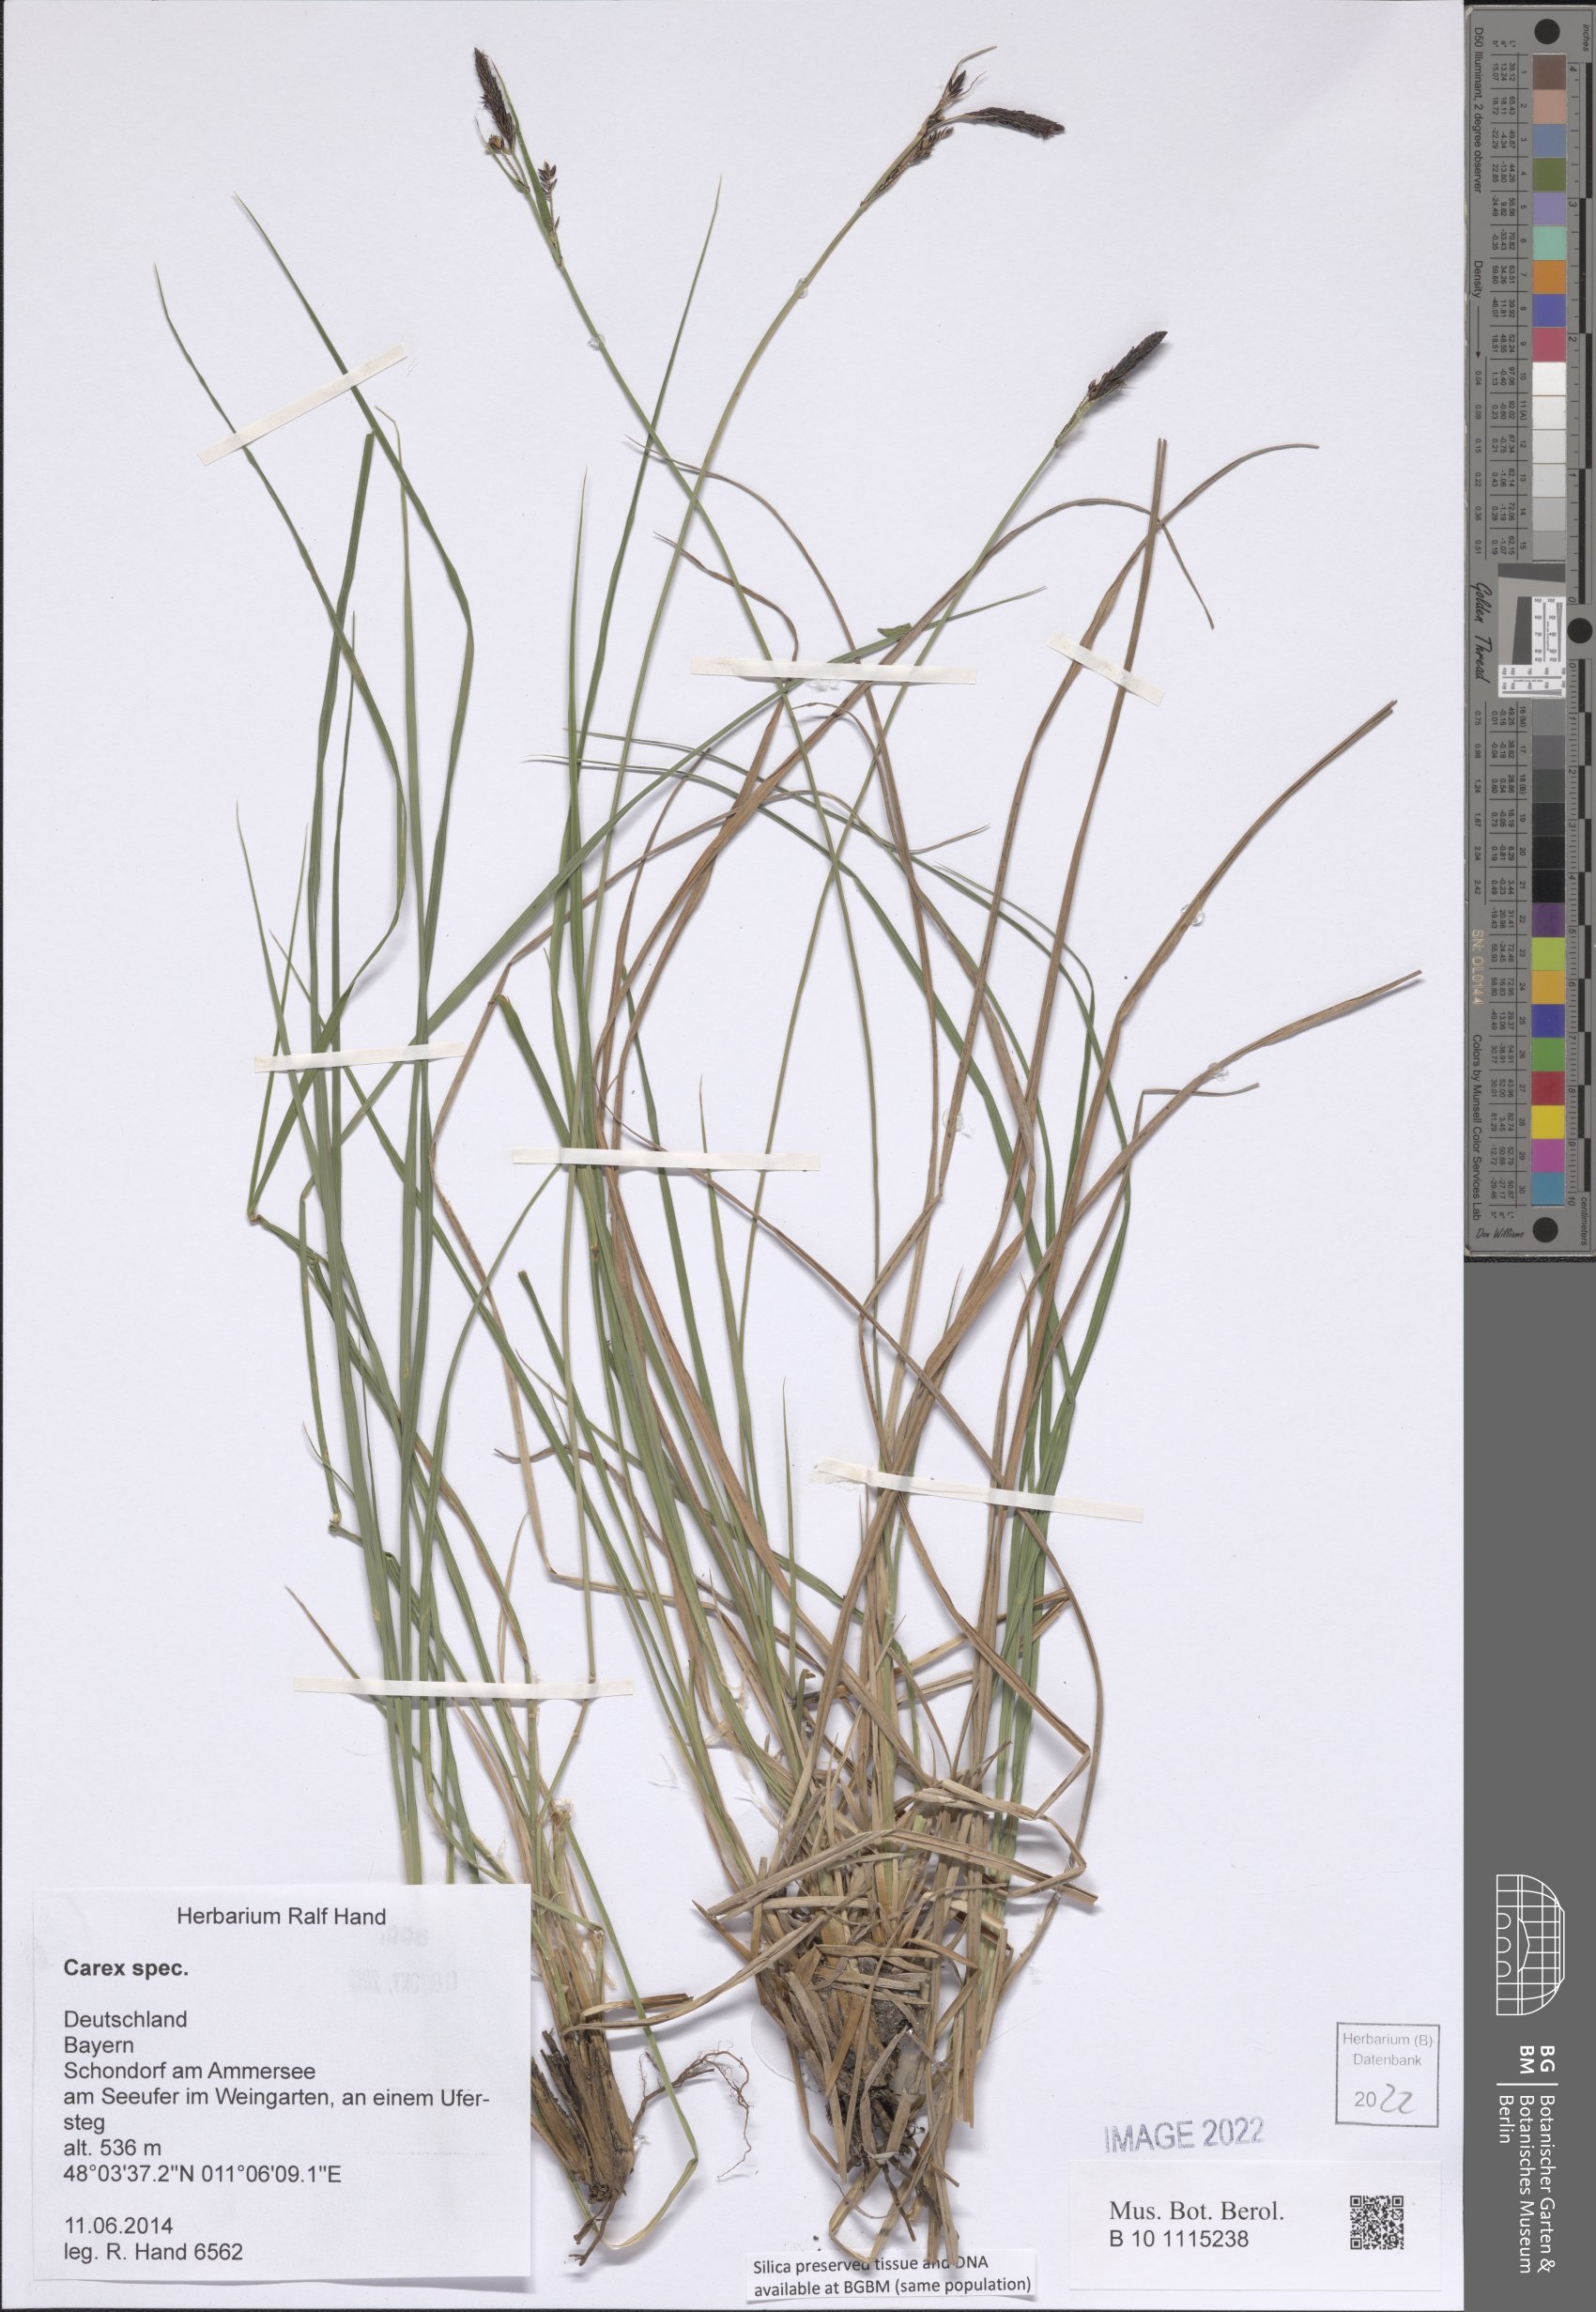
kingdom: Plantae
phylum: Tracheophyta
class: Liliopsida
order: Poales
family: Cyperaceae
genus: Carex
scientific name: Carex
